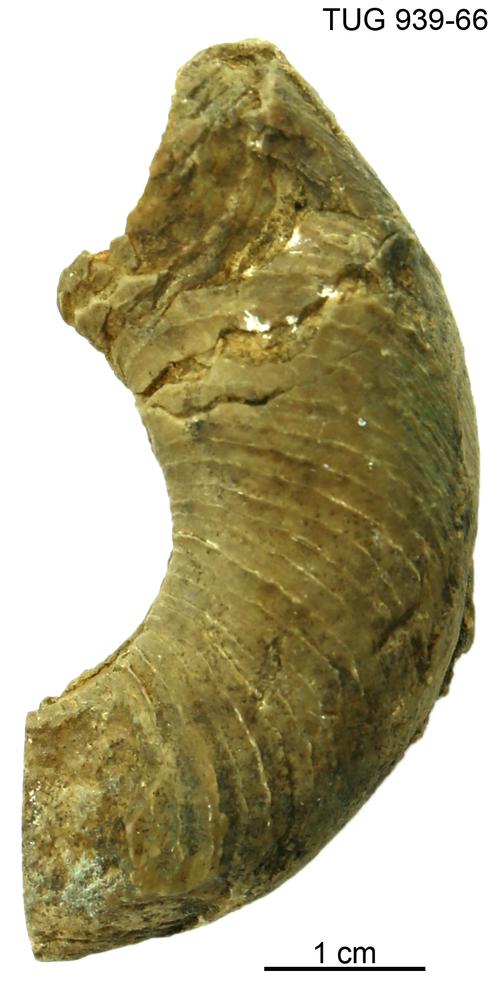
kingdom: Animalia
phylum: Mollusca
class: Cephalopoda
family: Trocholitidae
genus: Schroederoceras
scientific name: Schroederoceras
